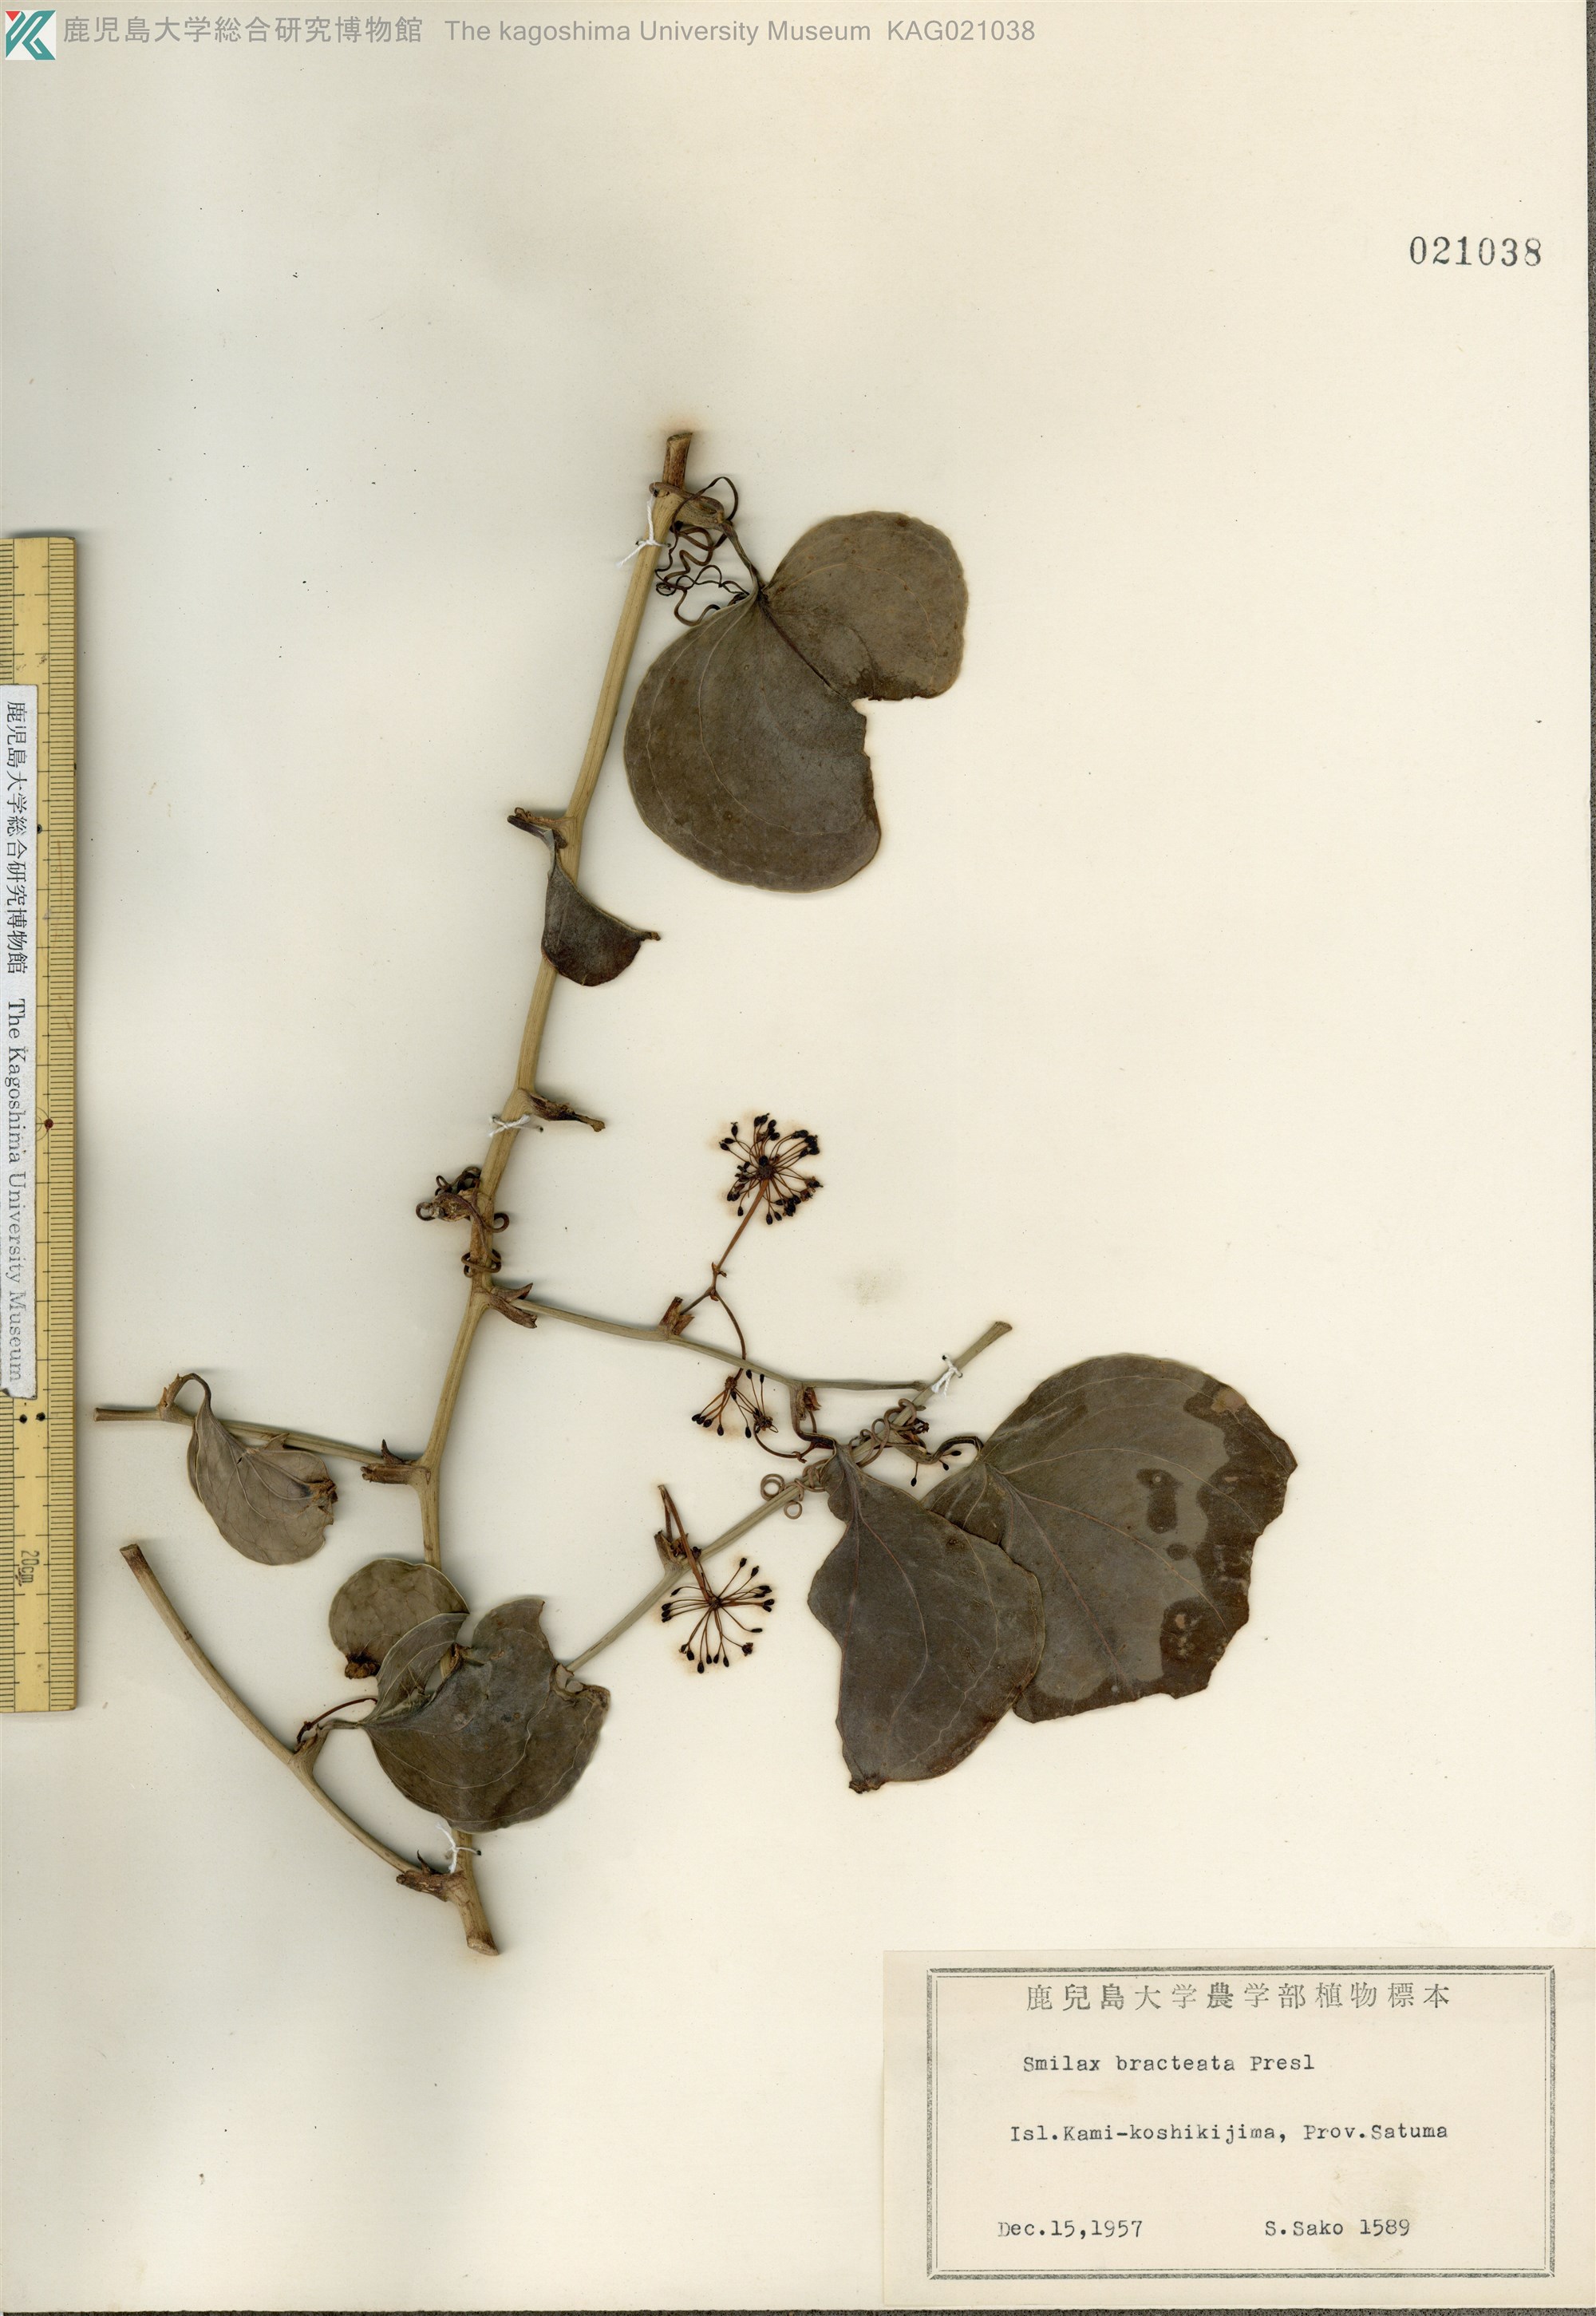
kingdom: Plantae
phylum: Tracheophyta
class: Liliopsida
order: Liliales
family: Smilacaceae
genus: Smilax
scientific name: Smilax bracteata
